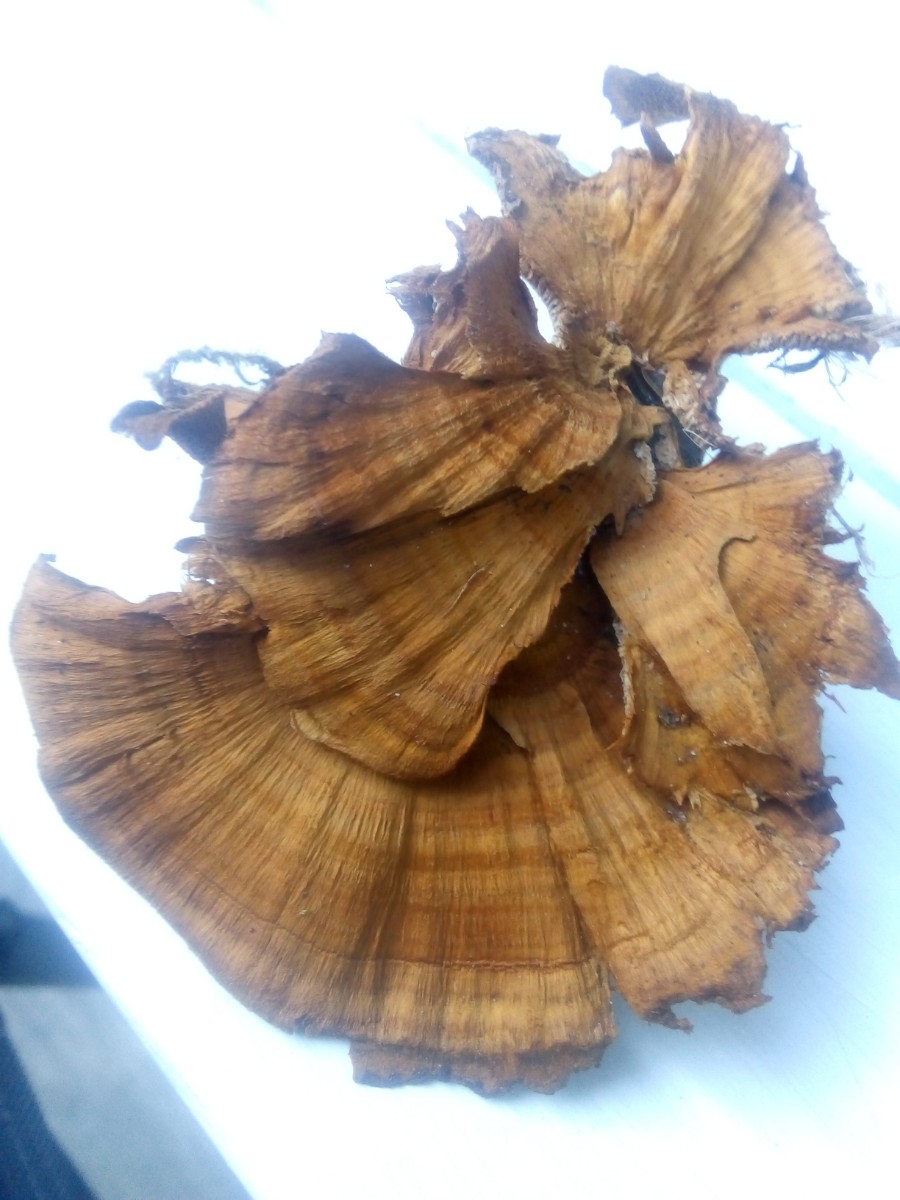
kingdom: Fungi
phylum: Basidiomycota
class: Agaricomycetes
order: Hymenochaetales
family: Hymenochaetaceae
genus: Coltricia
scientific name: Coltricia perennis
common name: almindelig sandporesvamp
